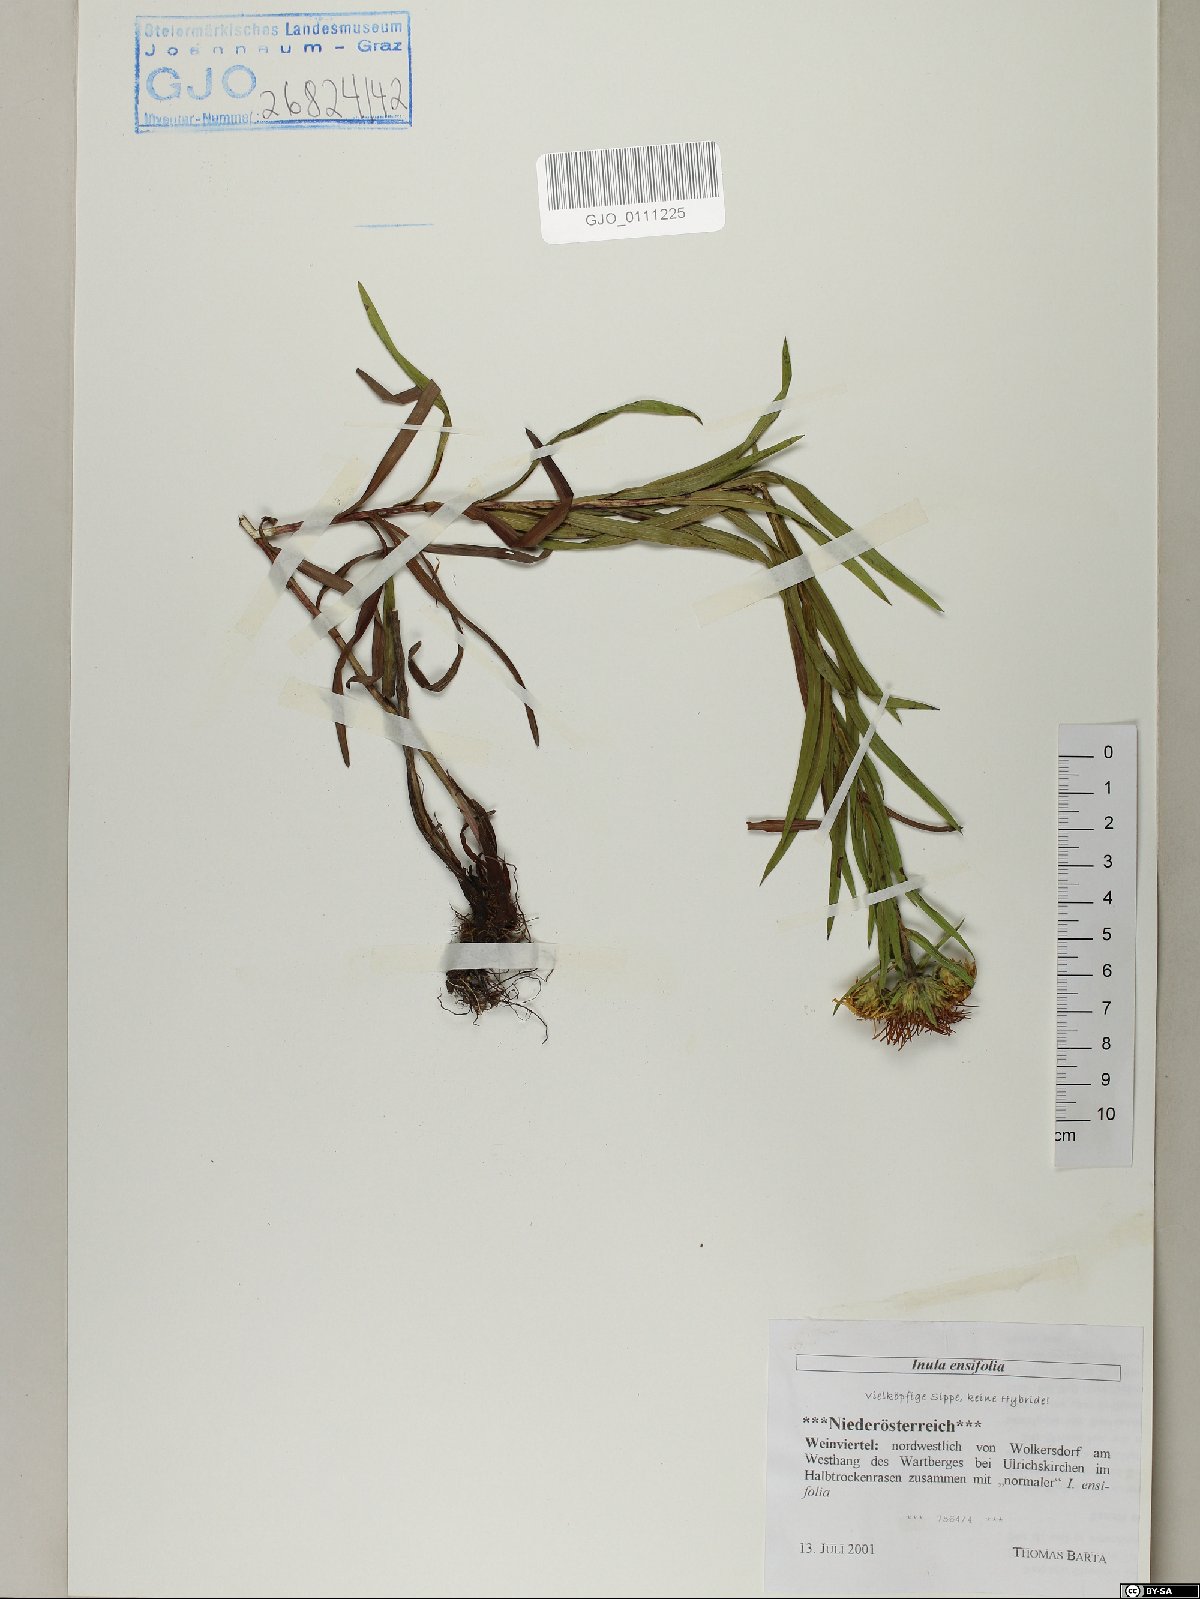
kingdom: Plantae
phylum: Tracheophyta
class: Magnoliopsida
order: Asterales
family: Asteraceae
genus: Pentanema
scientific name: Pentanema ensifolium
